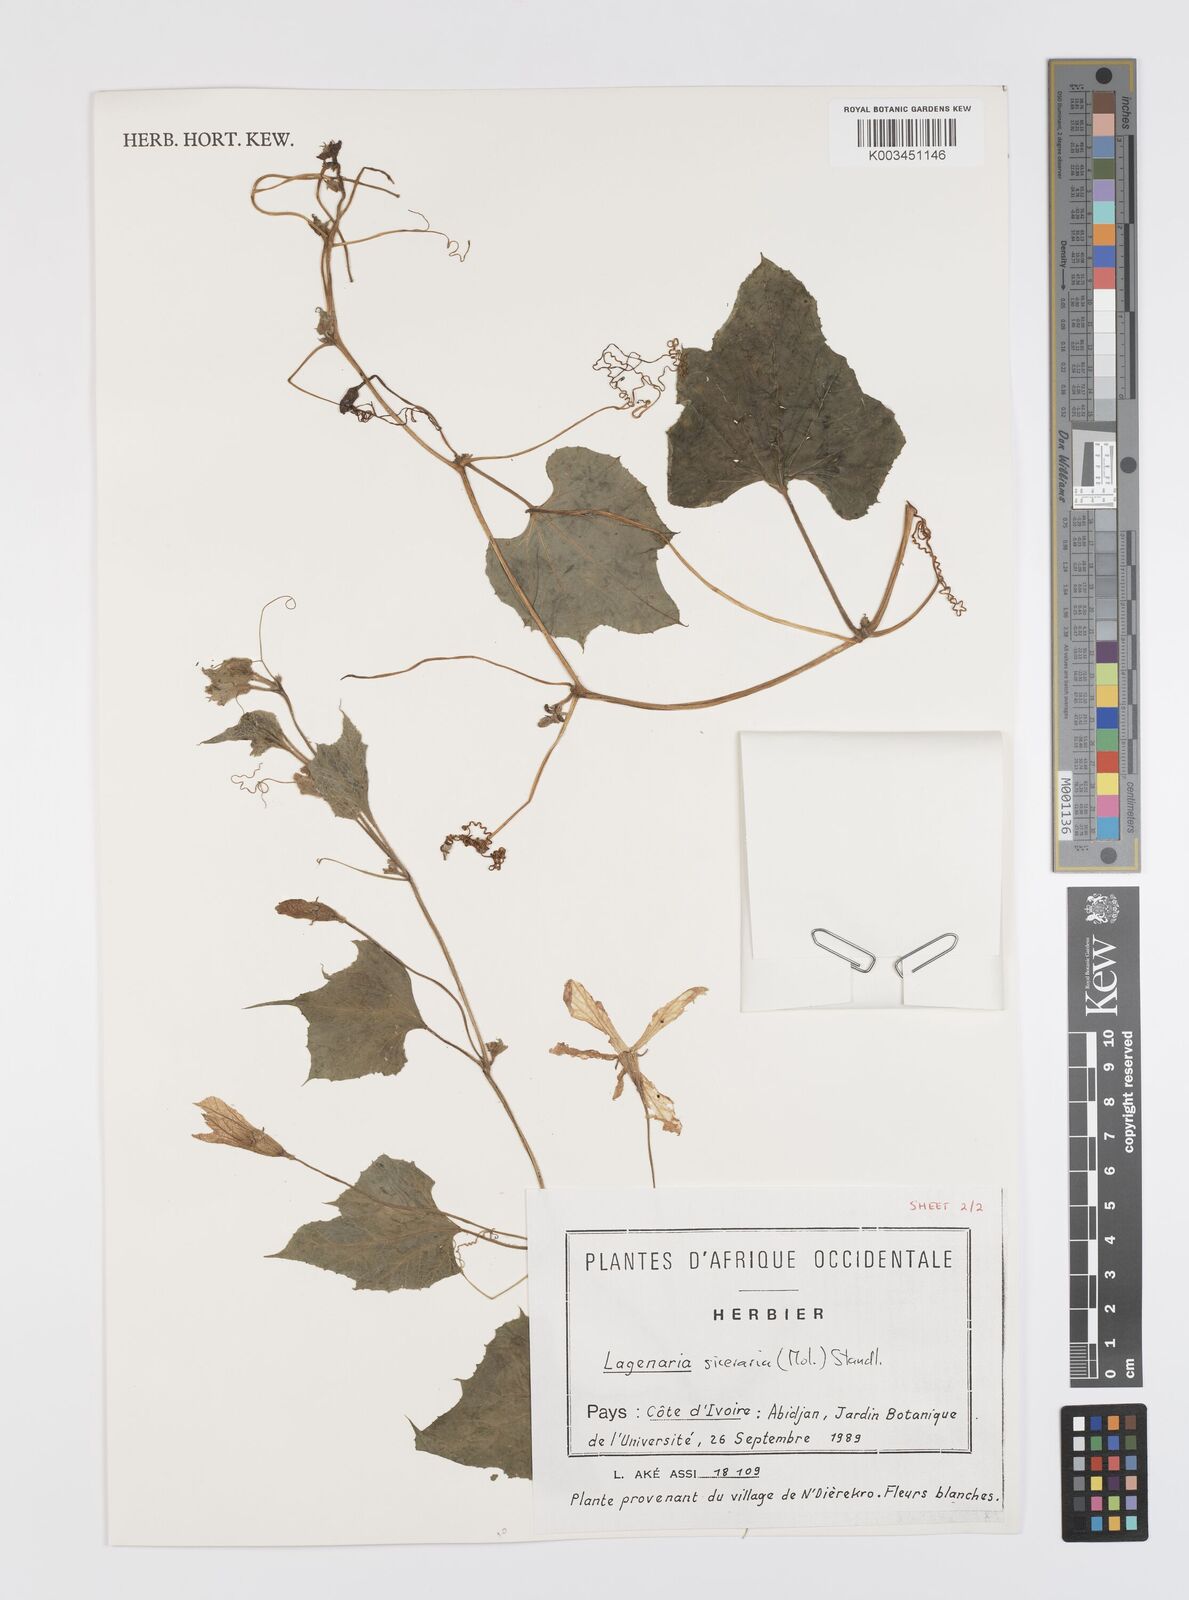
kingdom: Plantae
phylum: Tracheophyta
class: Magnoliopsida
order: Cucurbitales
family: Cucurbitaceae
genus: Lagenaria
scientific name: Lagenaria siceraria
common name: Bottle gourd
